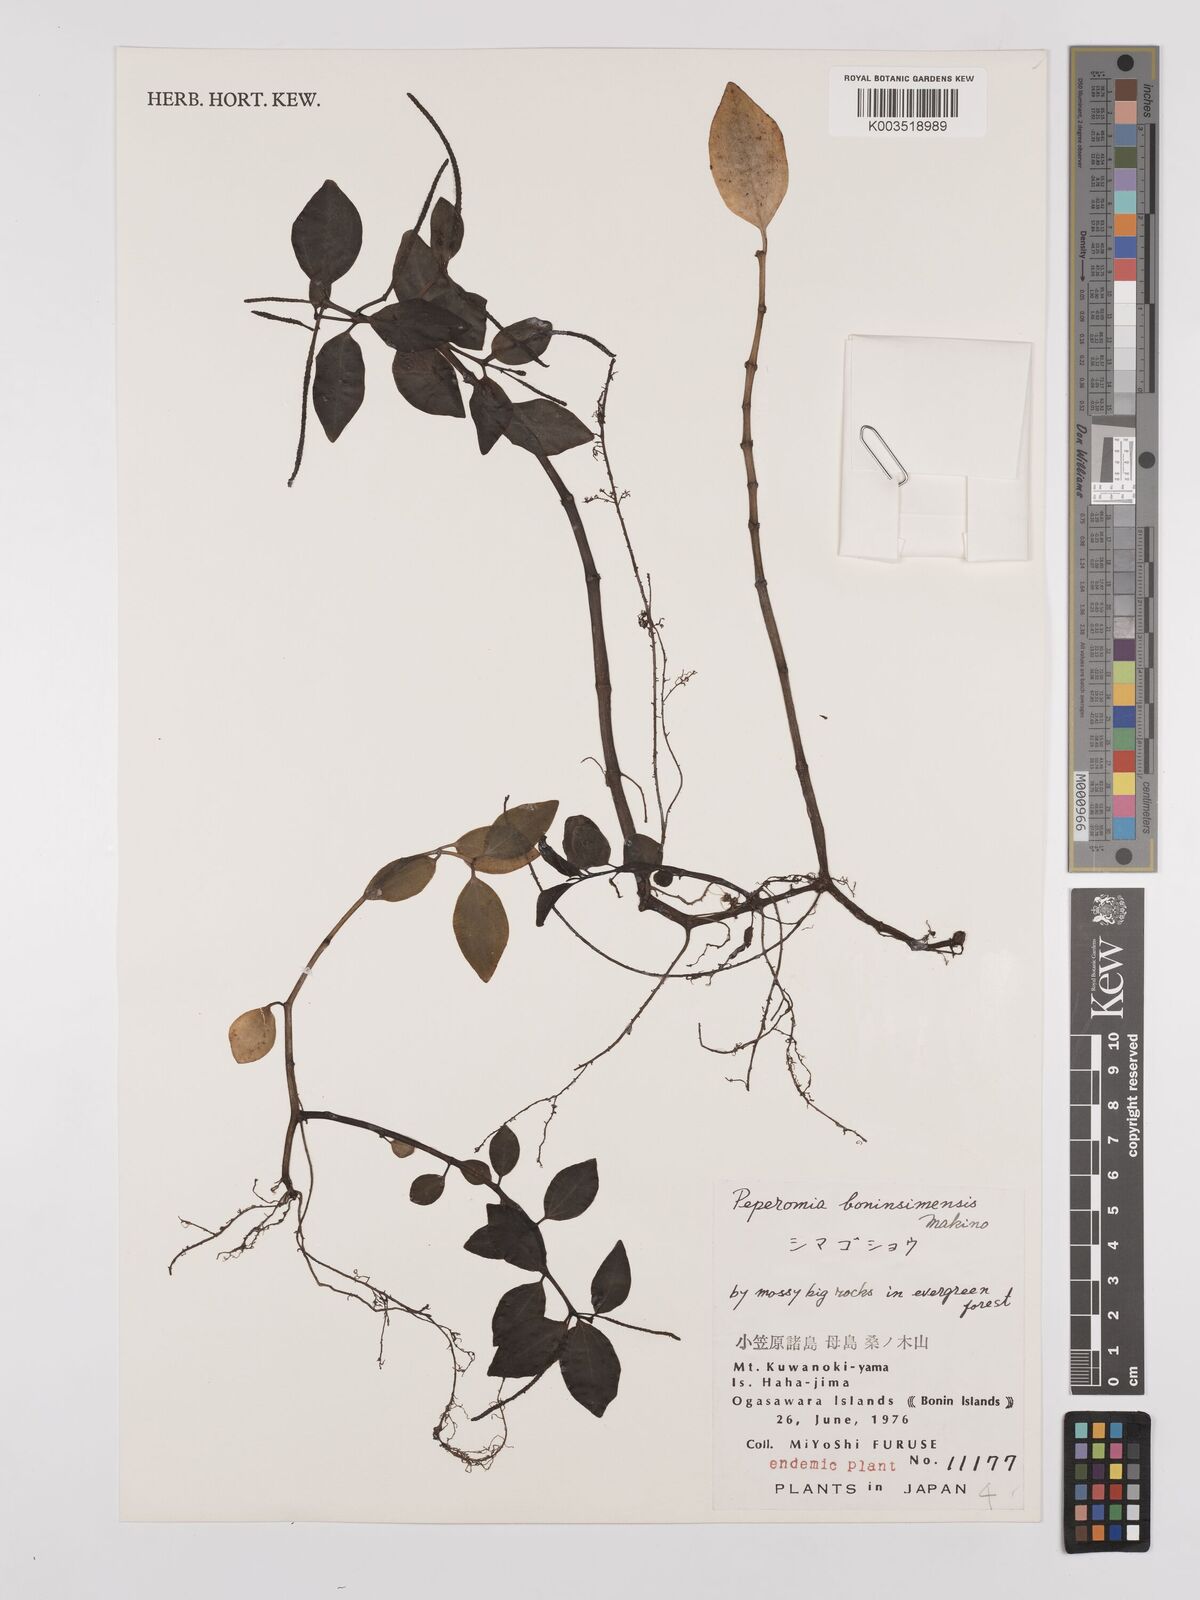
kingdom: Plantae
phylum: Tracheophyta
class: Magnoliopsida
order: Piperales
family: Piperaceae
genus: Peperomia
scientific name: Peperomia boninsimensis
